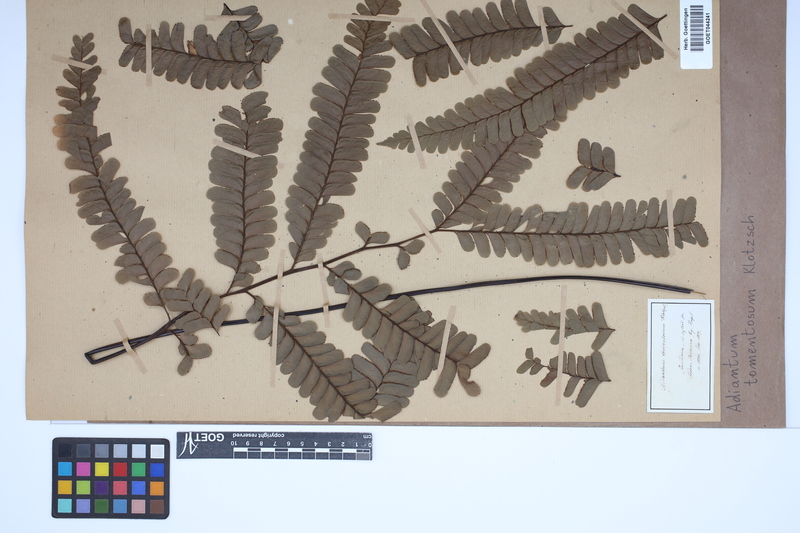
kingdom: Plantae
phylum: Tracheophyta
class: Polypodiopsida
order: Polypodiales
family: Pteridaceae
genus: Adiantum
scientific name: Adiantum tomentosum
